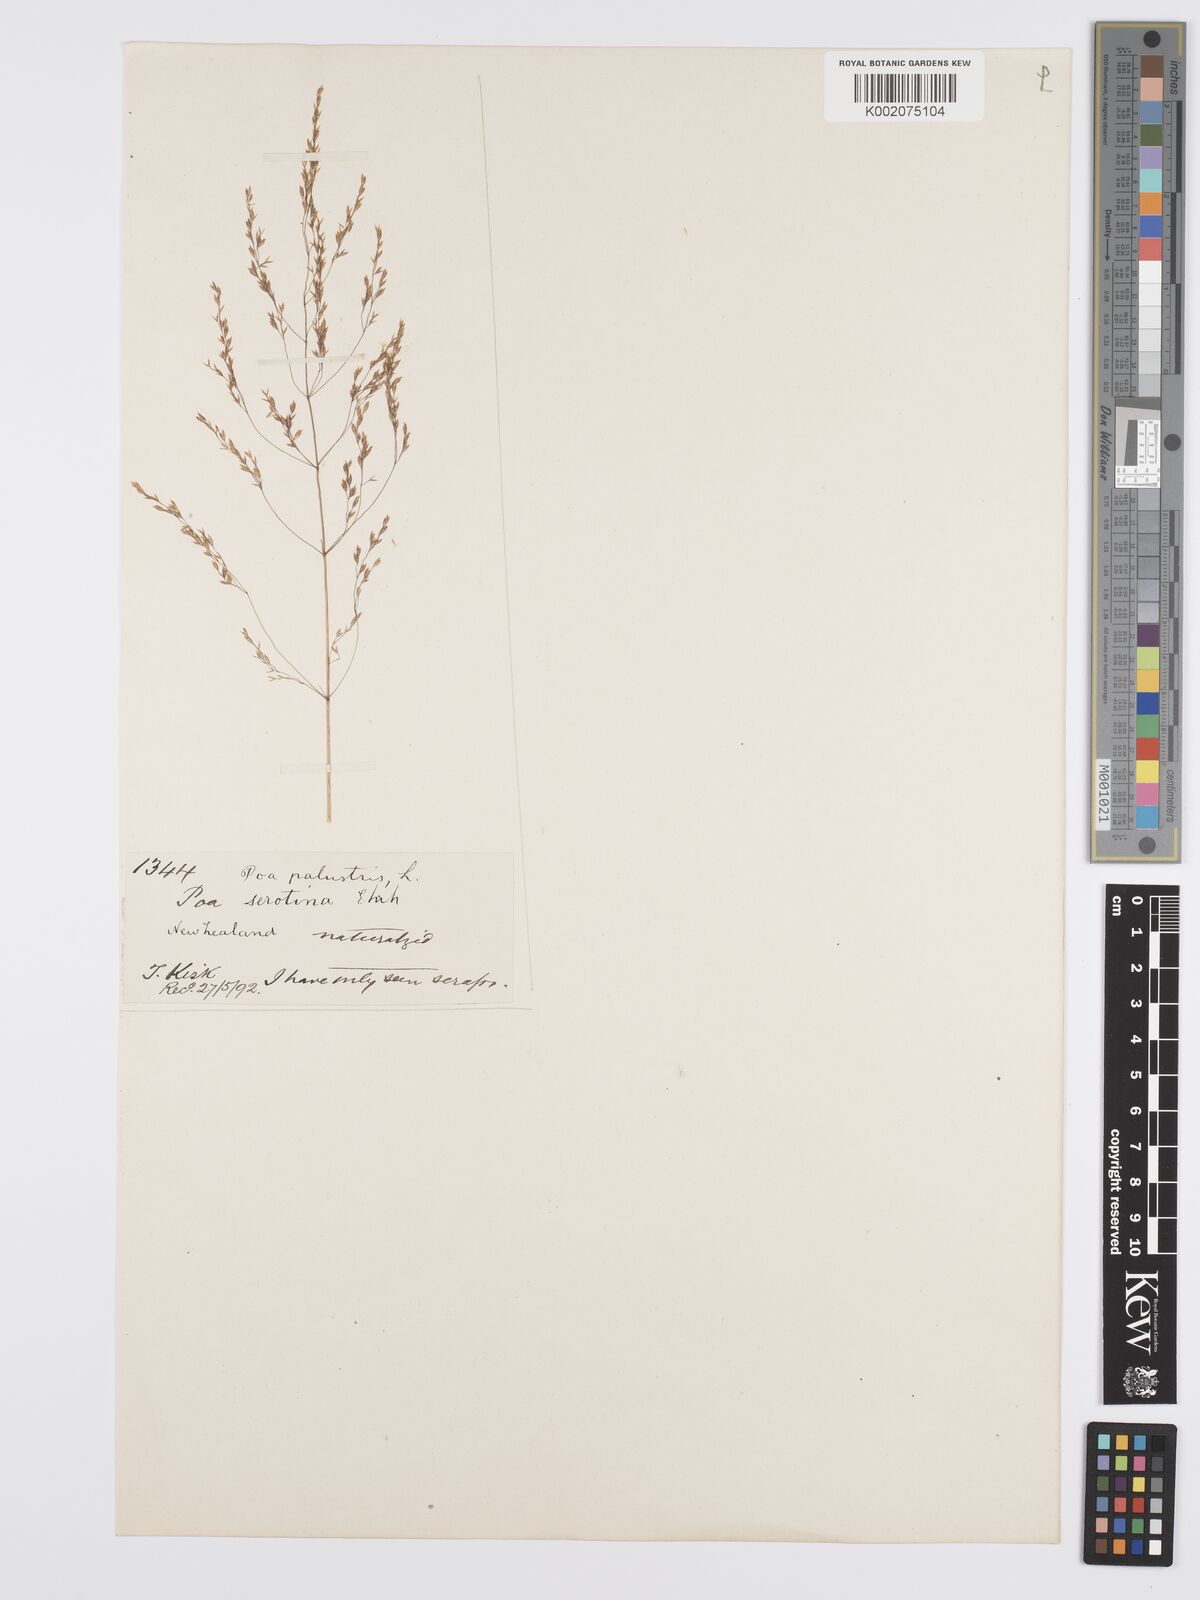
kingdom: Plantae
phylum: Tracheophyta
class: Liliopsida
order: Poales
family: Poaceae
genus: Poa
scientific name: Poa palustris
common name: Swamp meadow-grass
